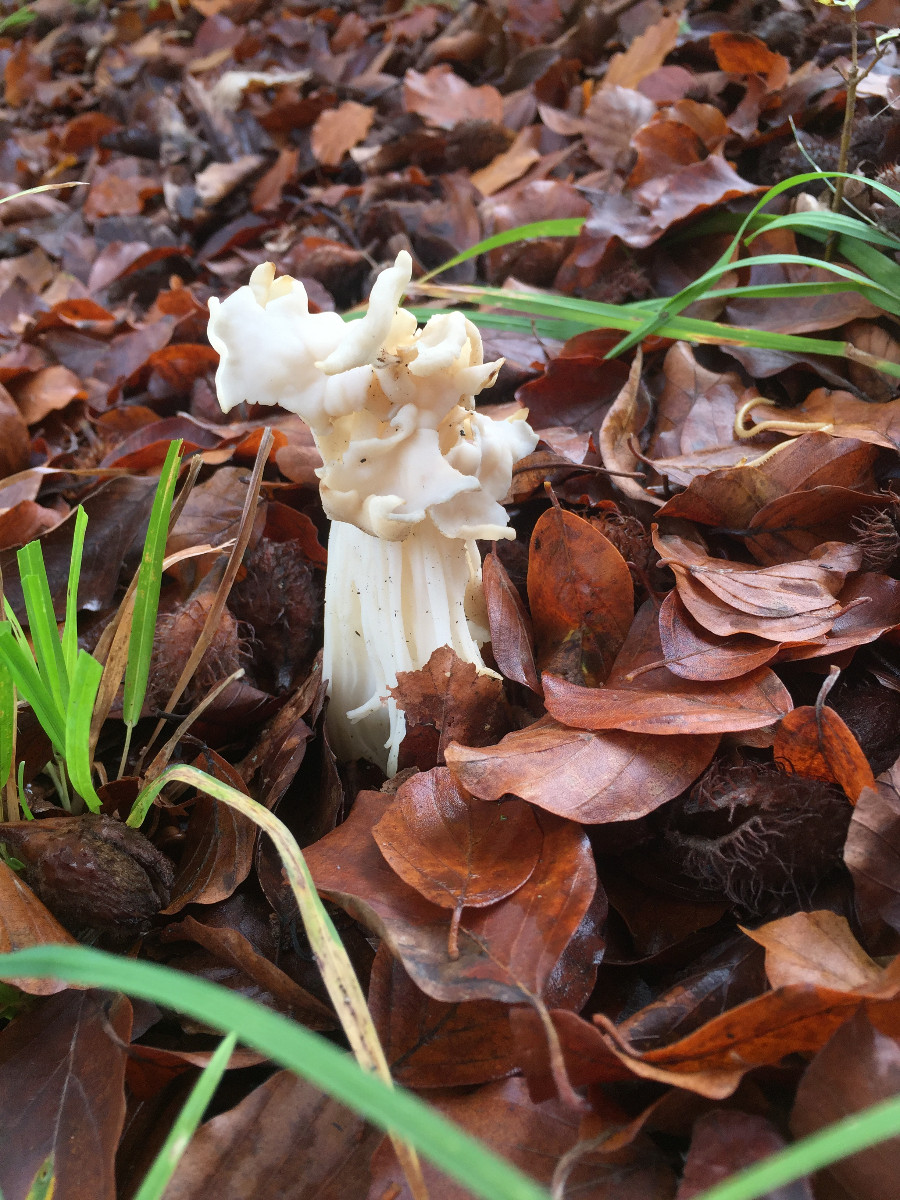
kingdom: Fungi
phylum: Ascomycota
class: Pezizomycetes
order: Pezizales
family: Helvellaceae
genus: Helvella
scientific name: Helvella crispa
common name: kruset foldhat
